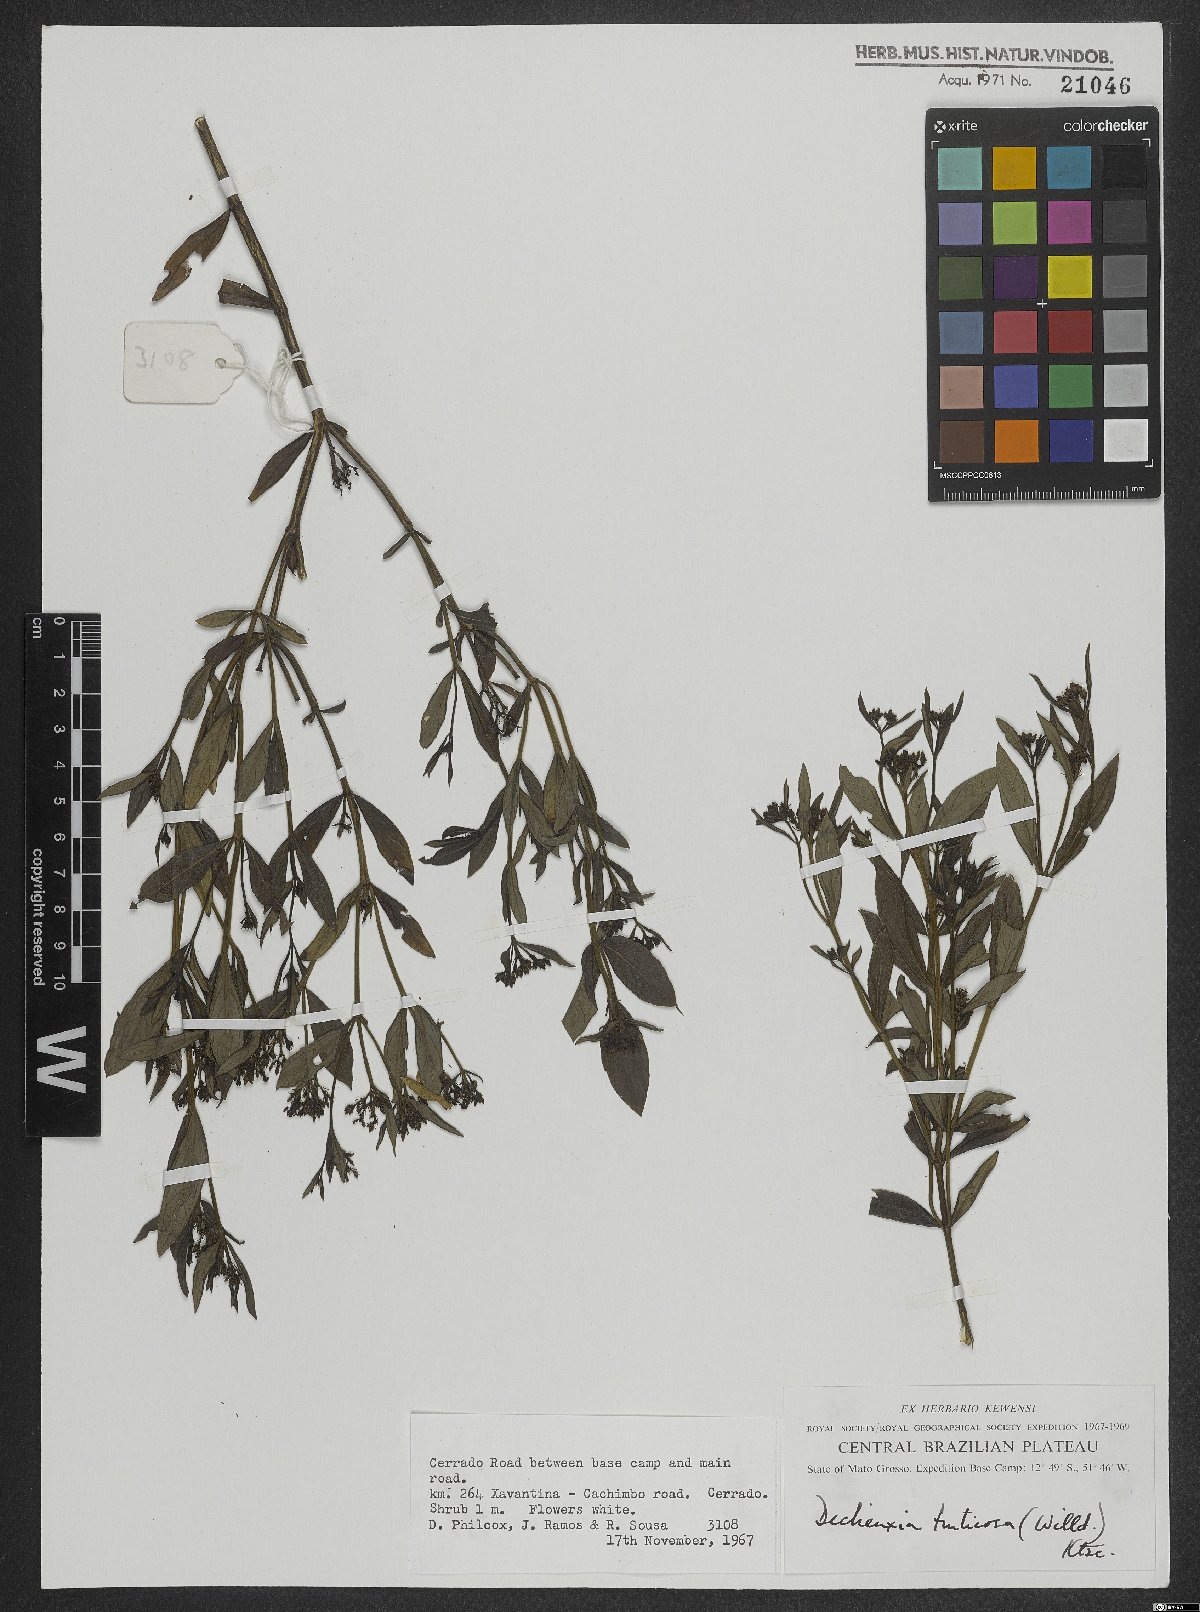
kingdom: Plantae
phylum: Tracheophyta
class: Magnoliopsida
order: Gentianales
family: Rubiaceae
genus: Declieuxia
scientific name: Declieuxia fruticosa
